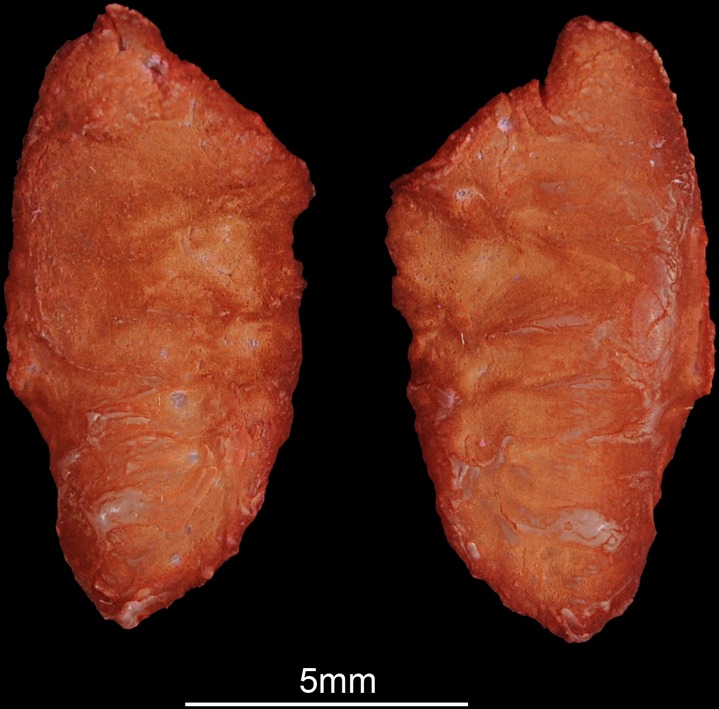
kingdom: Animalia
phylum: Chordata
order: Perciformes
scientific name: Perciformes
